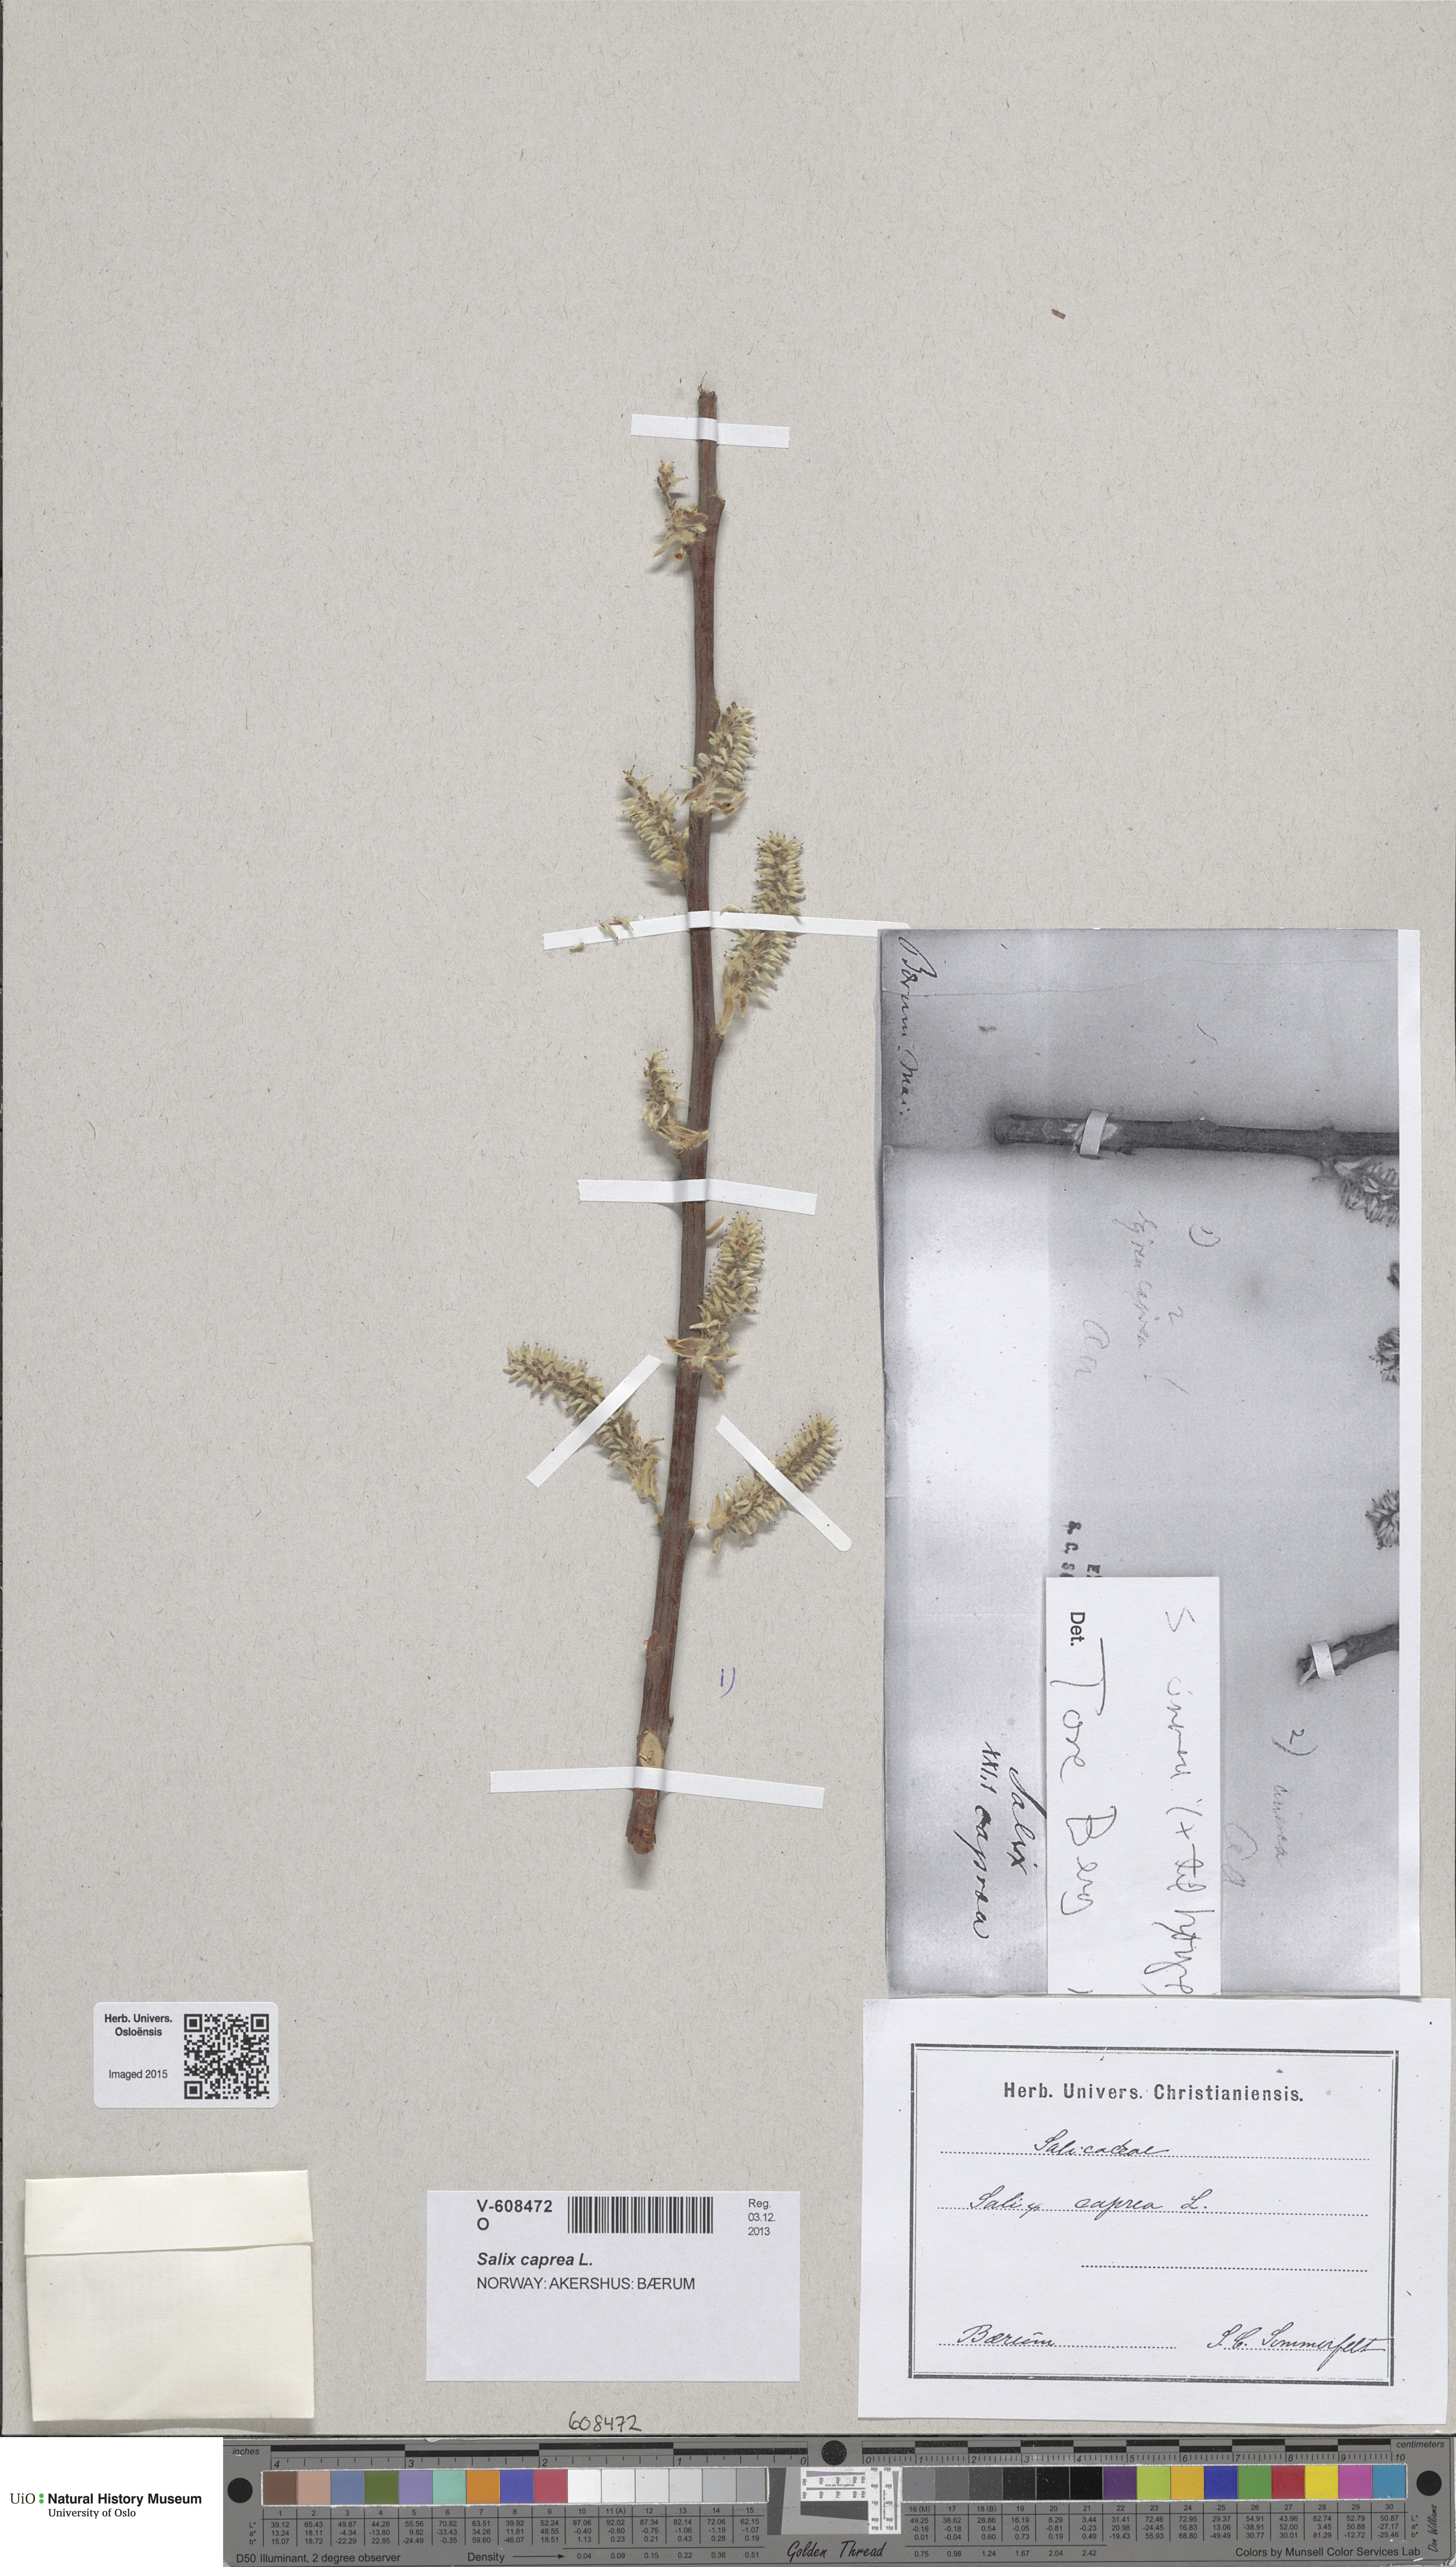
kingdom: Plantae
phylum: Tracheophyta
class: Magnoliopsida
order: Malpighiales
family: Salicaceae
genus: Salix
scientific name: Salix caprea
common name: Goat willow
